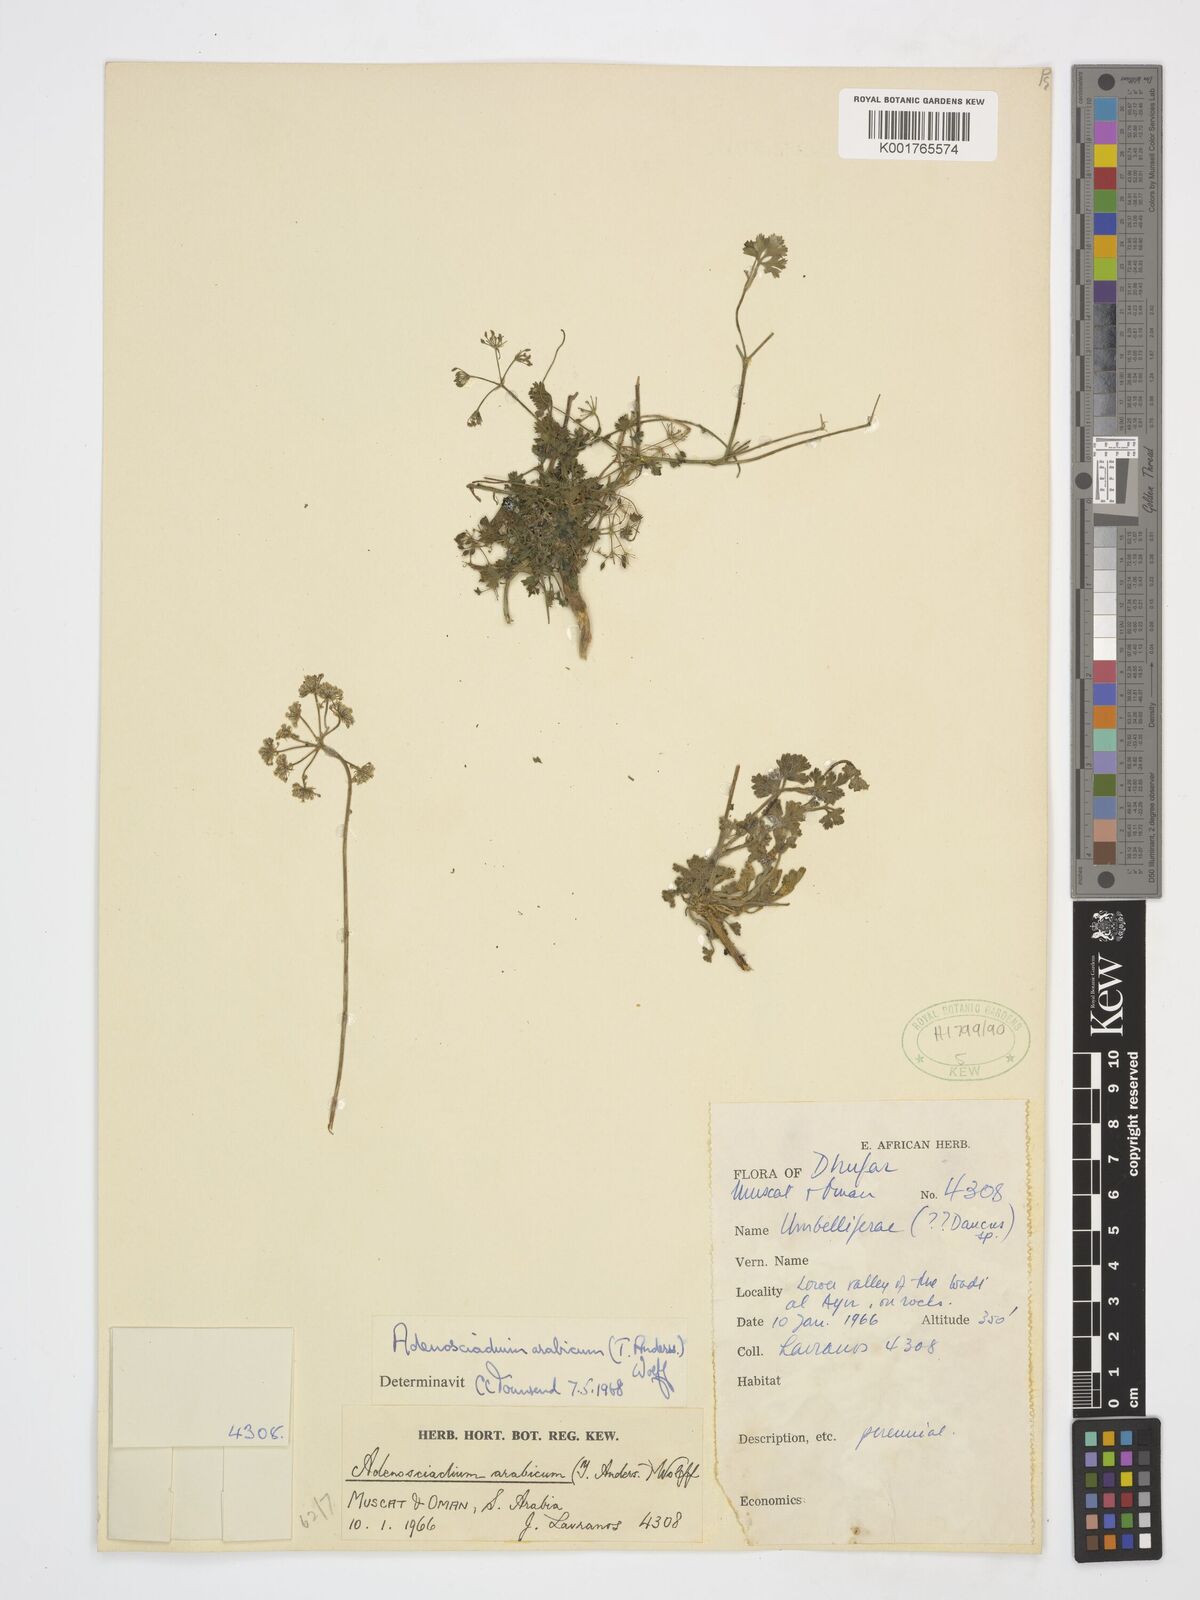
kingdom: Plantae
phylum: Tracheophyta
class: Magnoliopsida
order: Apiales
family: Apiaceae
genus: Adenosciadium
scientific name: Adenosciadium arabicum
